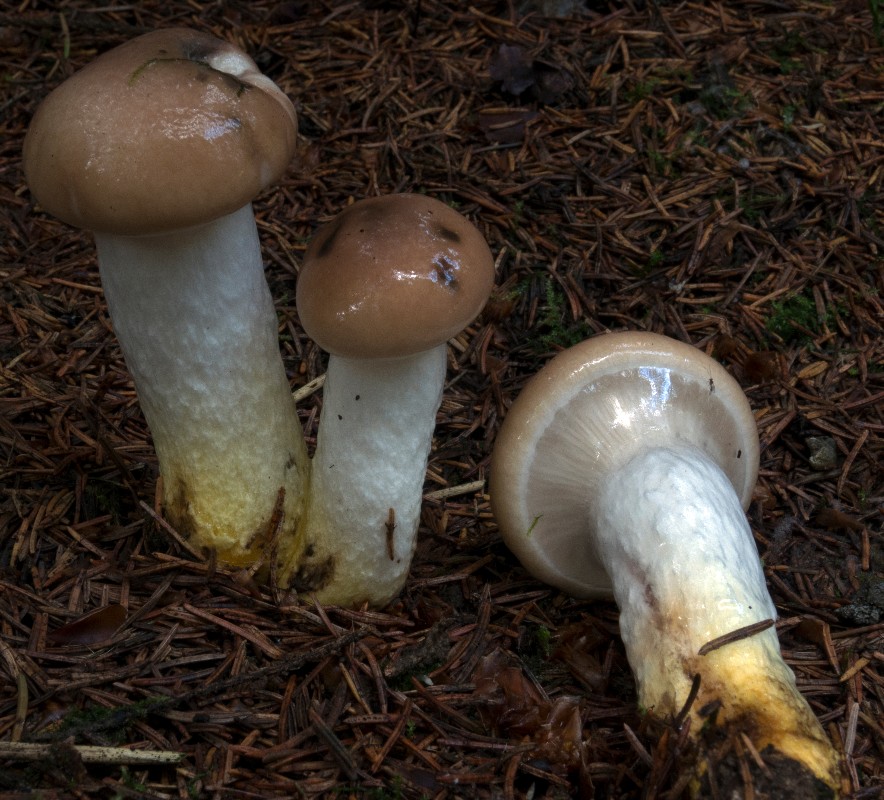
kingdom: Fungi
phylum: Basidiomycota
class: Agaricomycetes
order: Boletales
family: Gomphidiaceae
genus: Gomphidius
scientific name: Gomphidius glutinosus
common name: grå slimslør
